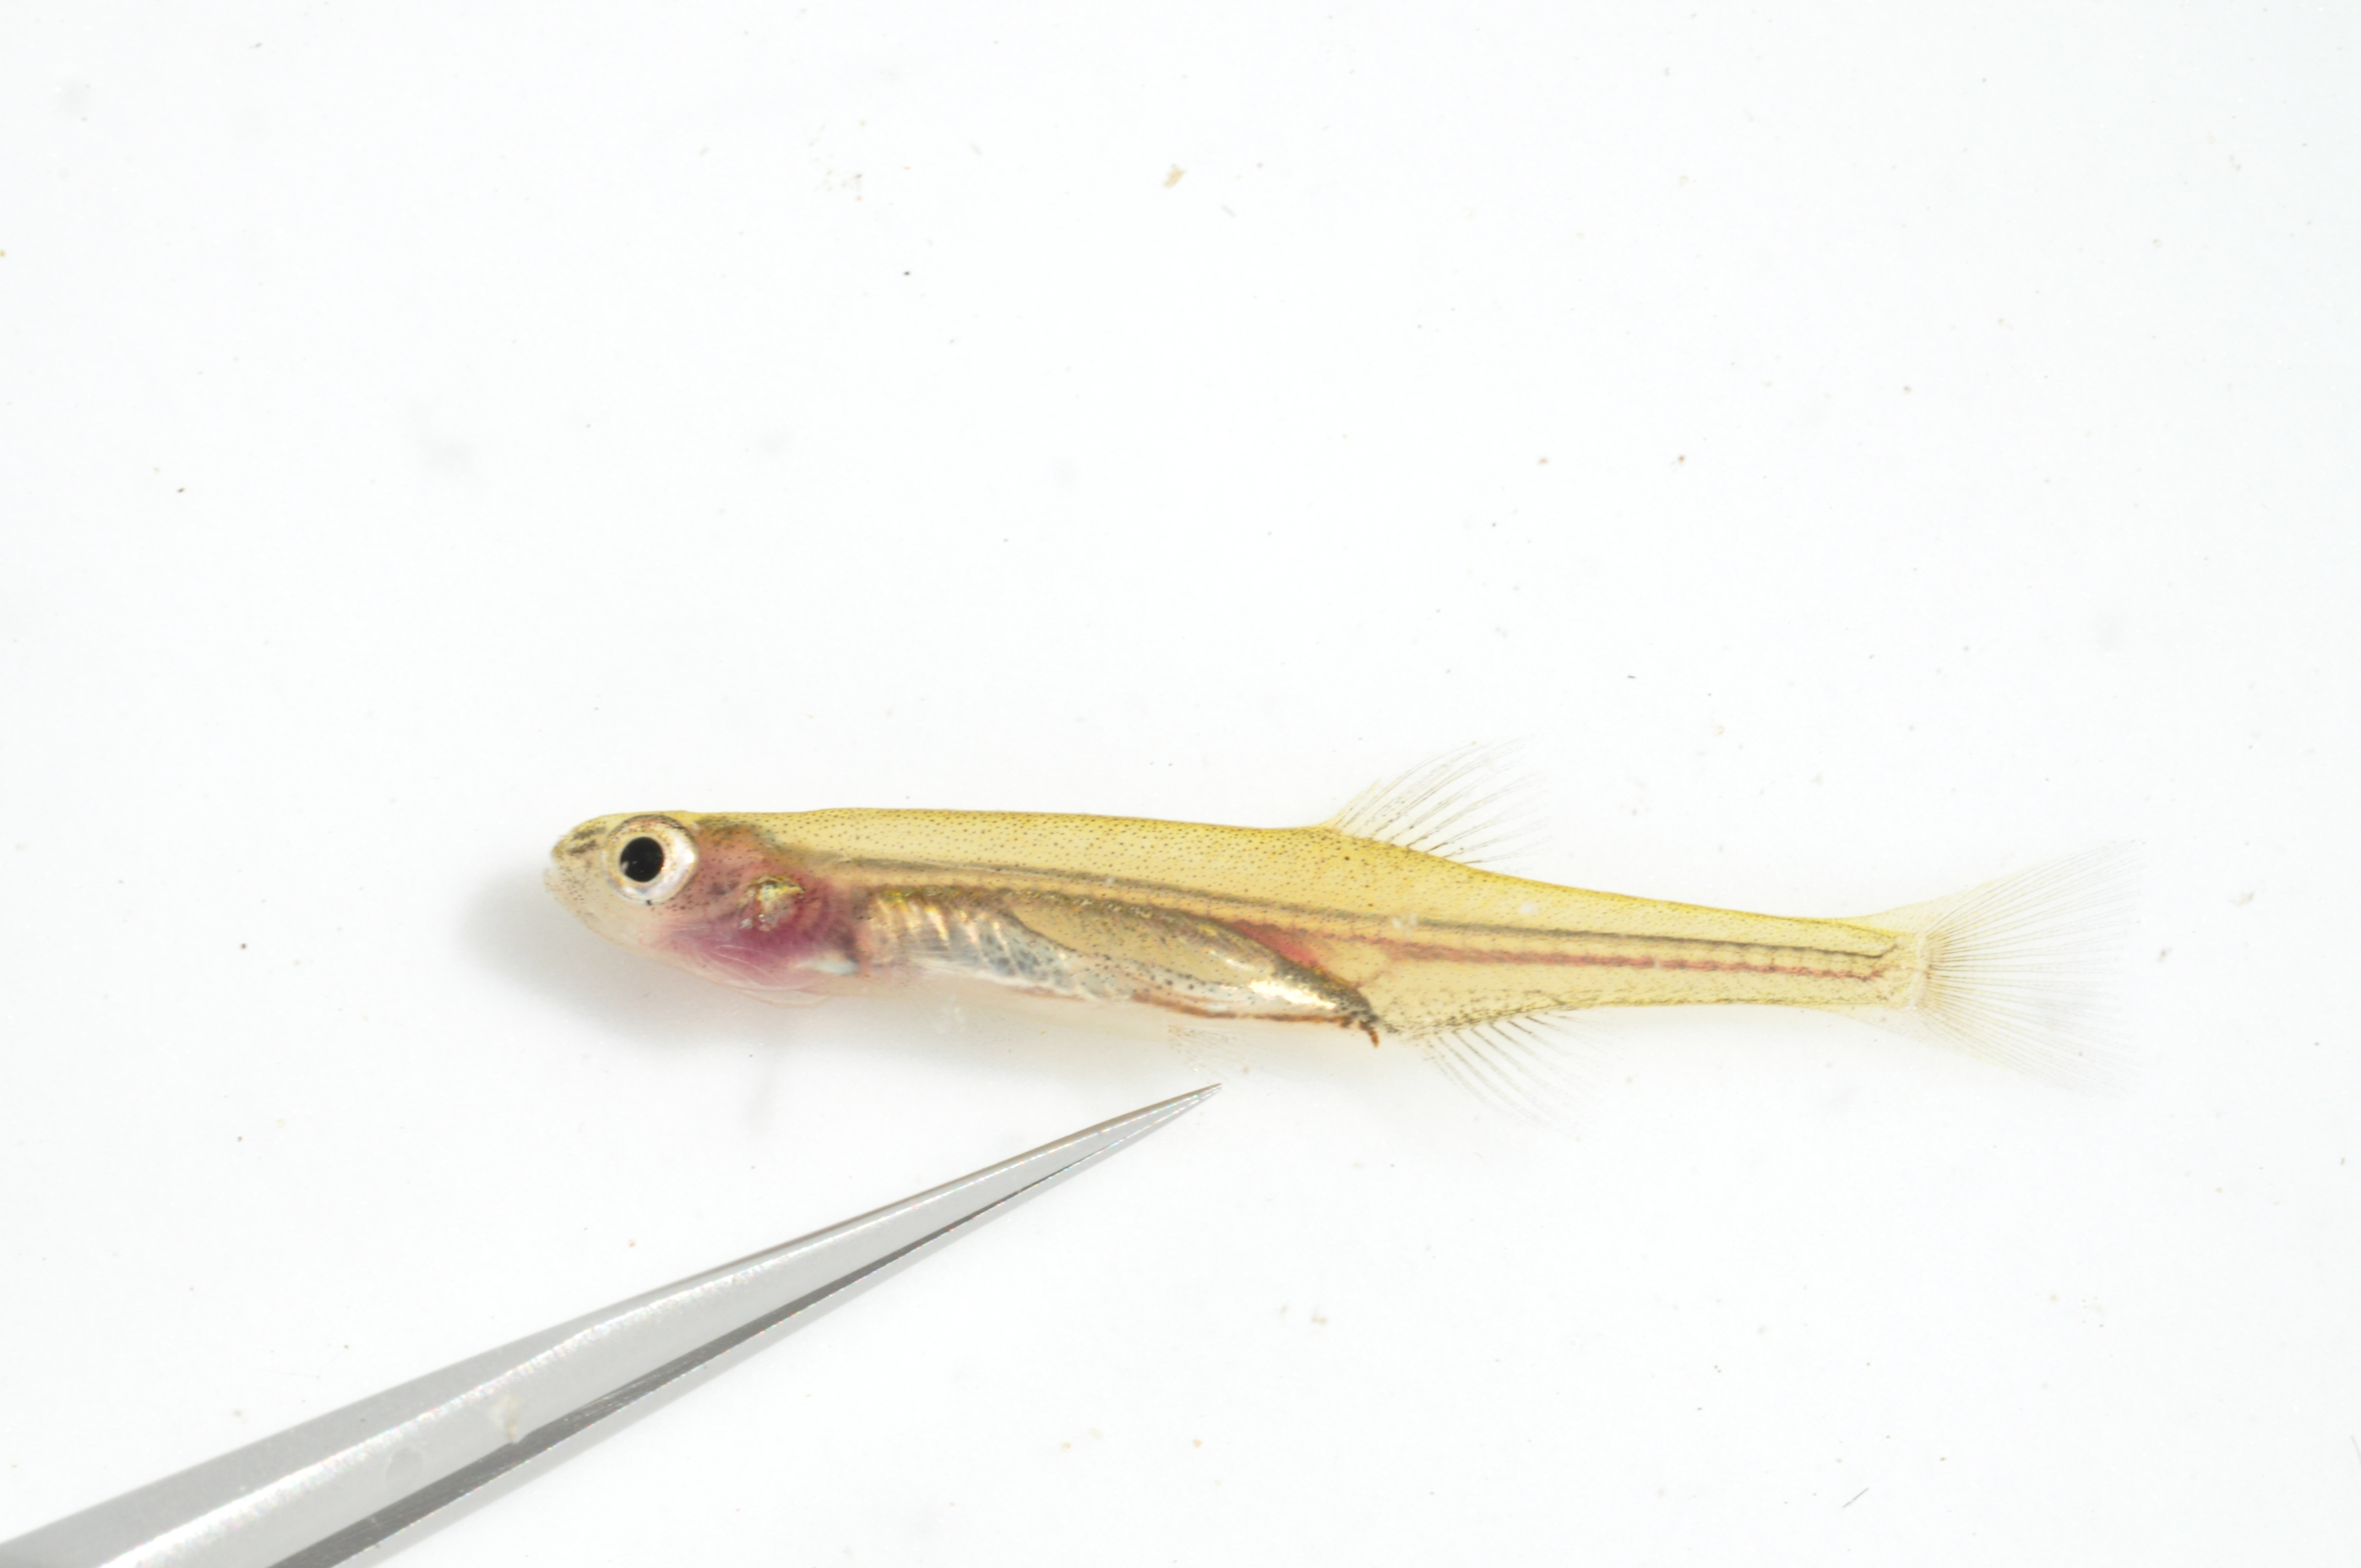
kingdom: Animalia
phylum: Chordata
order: Osmeriformes
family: Galaxiidae
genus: Galaxias
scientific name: Galaxias
